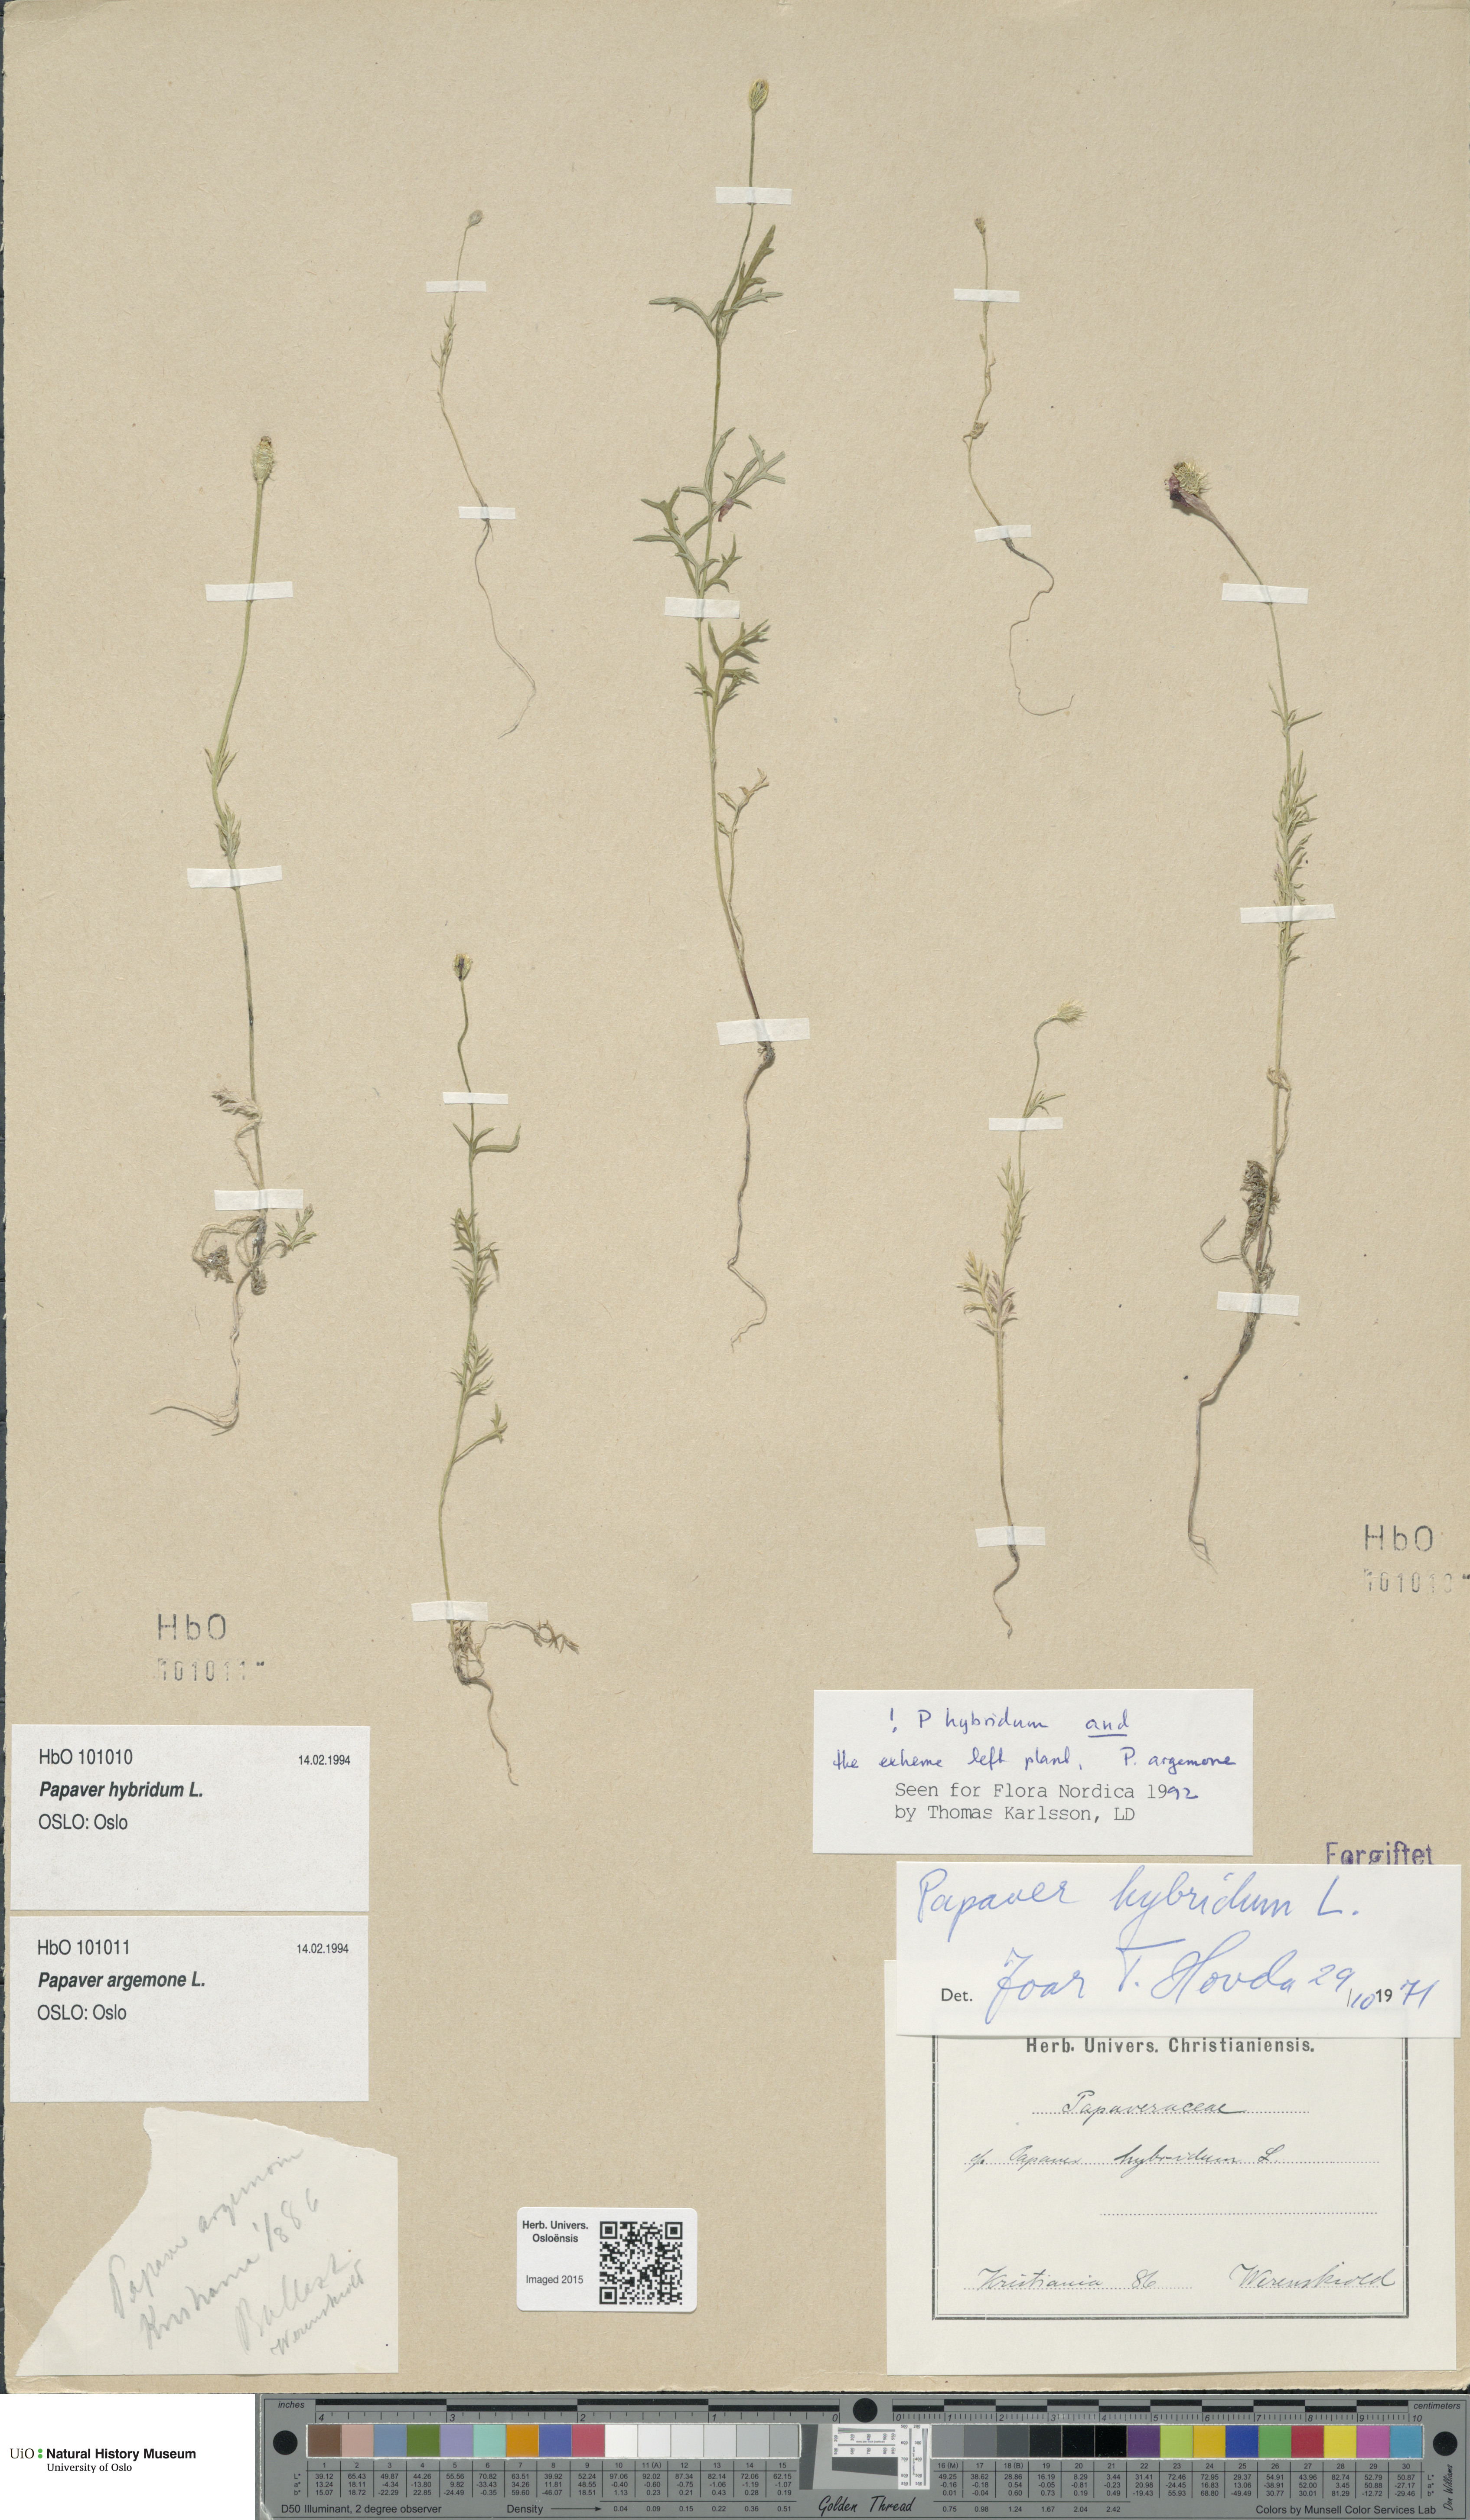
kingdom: Plantae
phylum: Tracheophyta
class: Magnoliopsida
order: Ranunculales
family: Papaveraceae
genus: Roemeria
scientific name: Roemeria argemone
